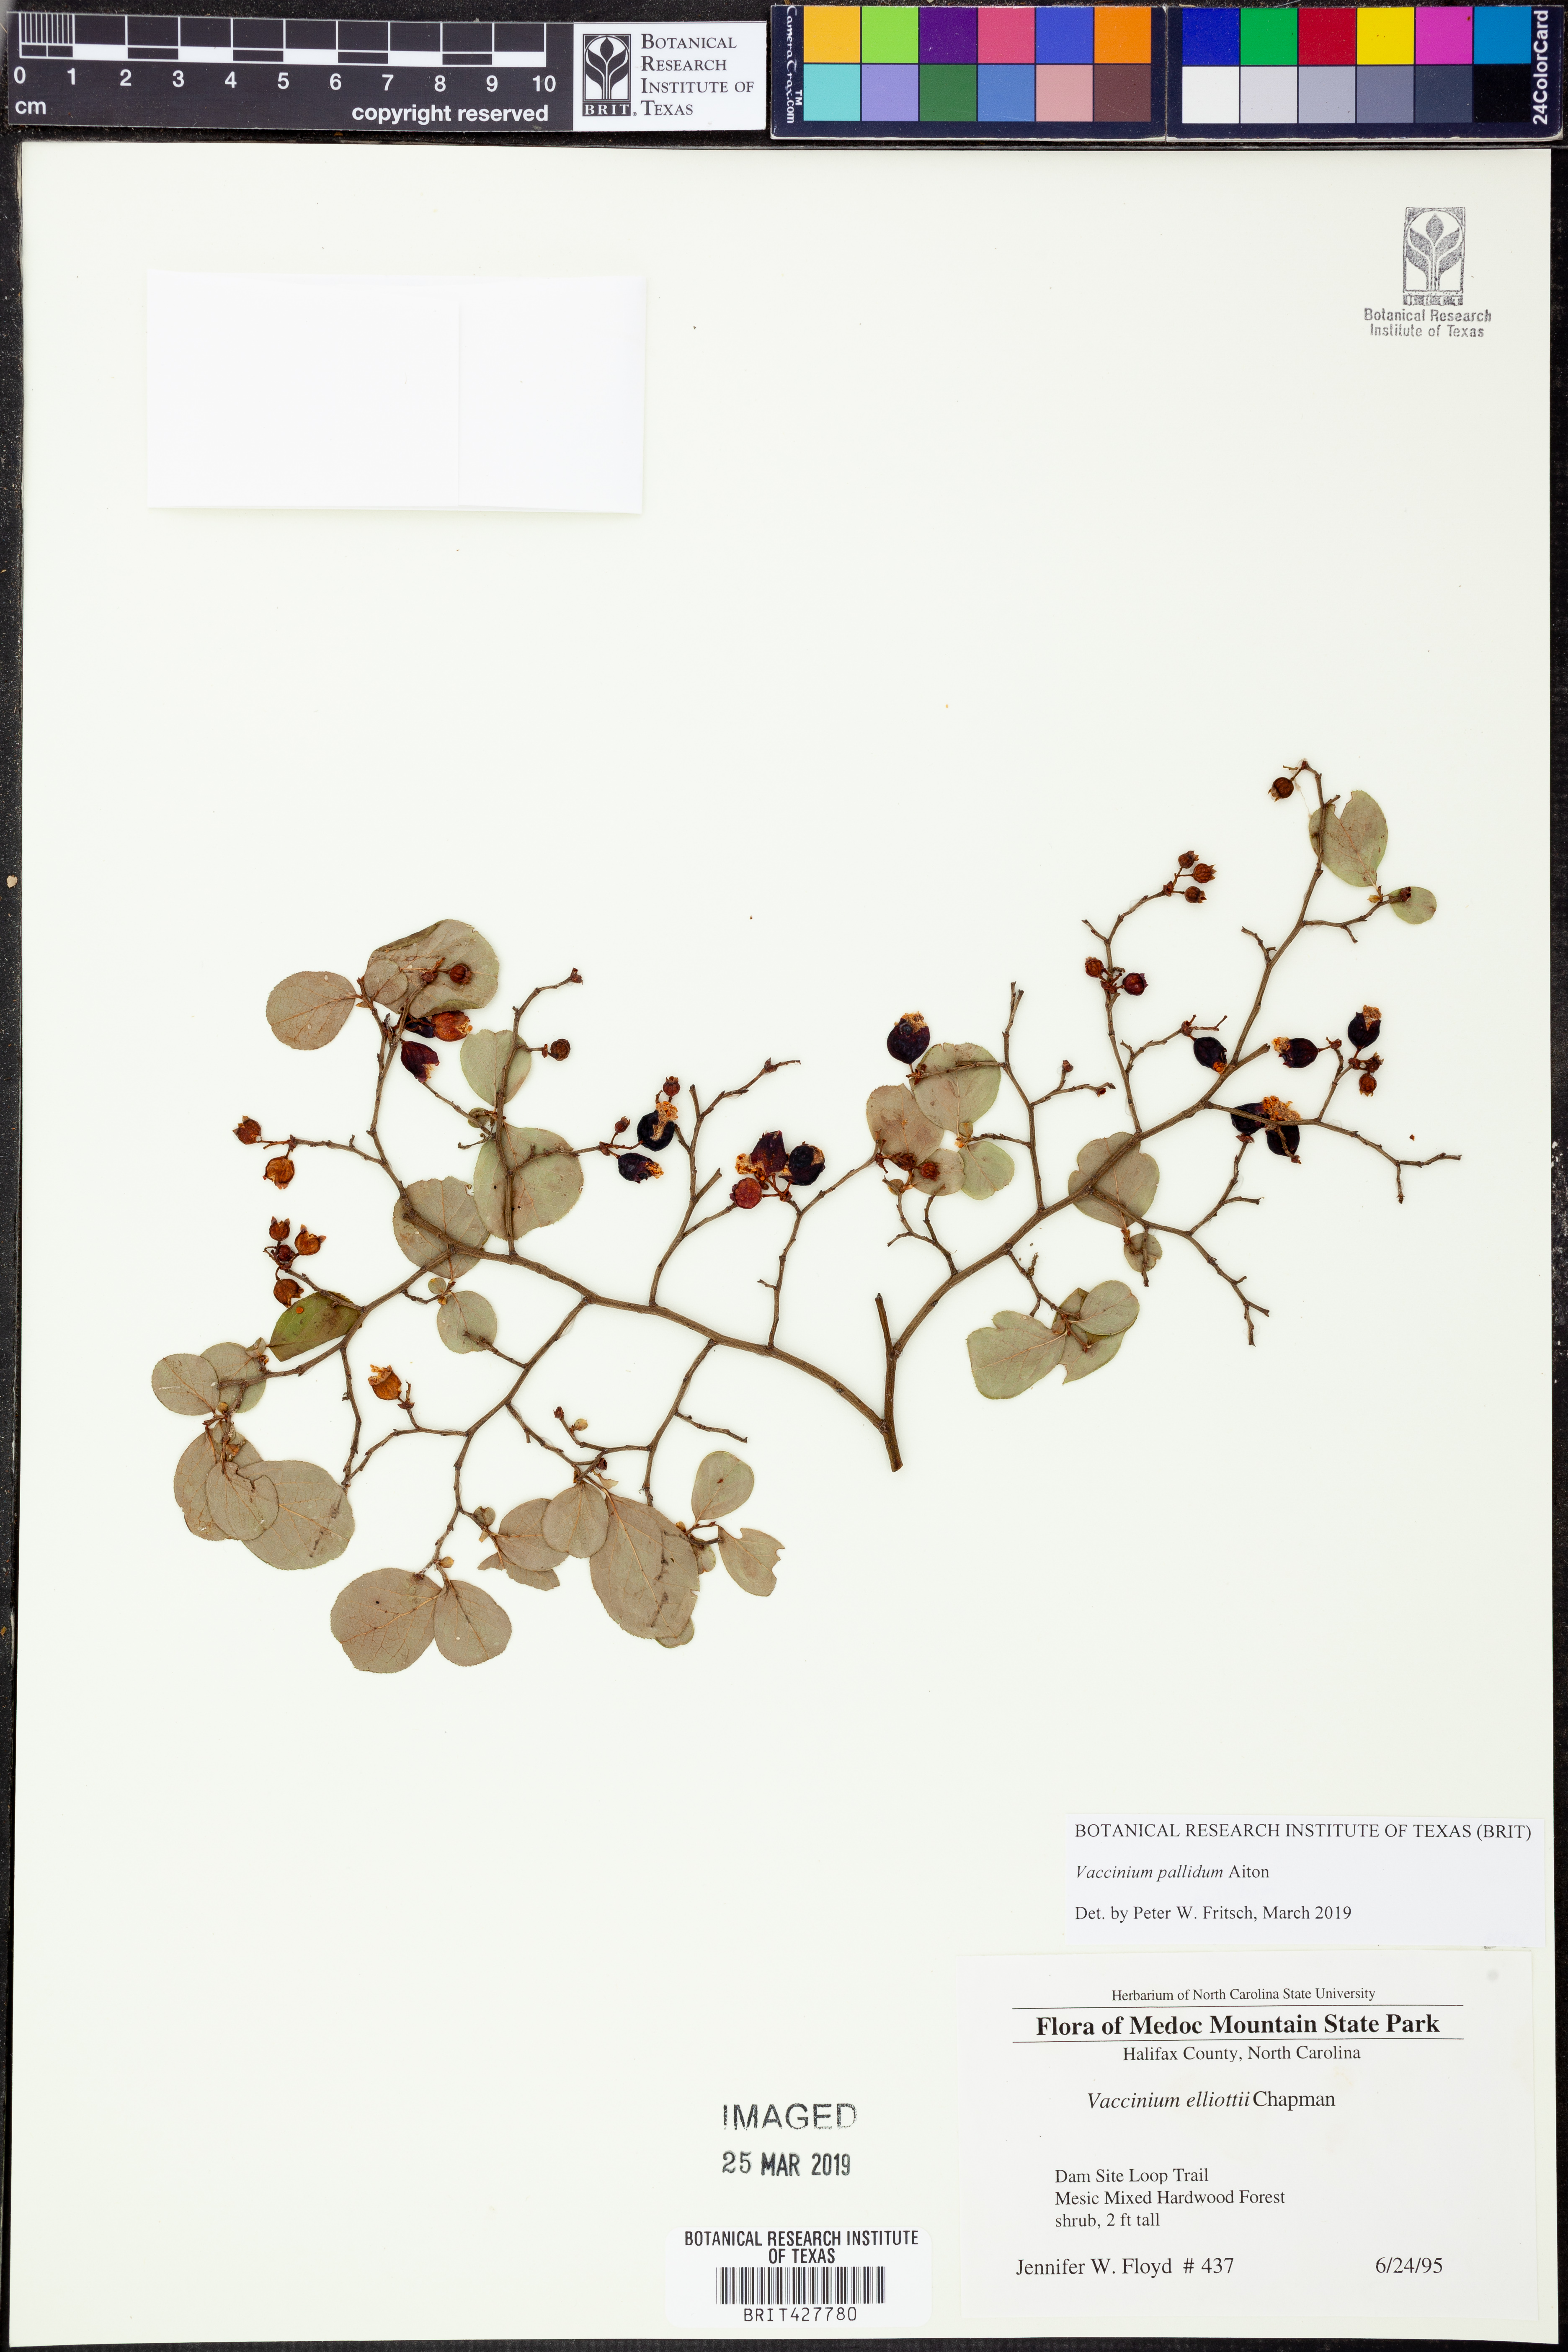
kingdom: Plantae
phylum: Tracheophyta
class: Magnoliopsida
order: Ericales
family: Ericaceae
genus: Vaccinium
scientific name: Vaccinium pallidum
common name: Blue ridge blueberry
